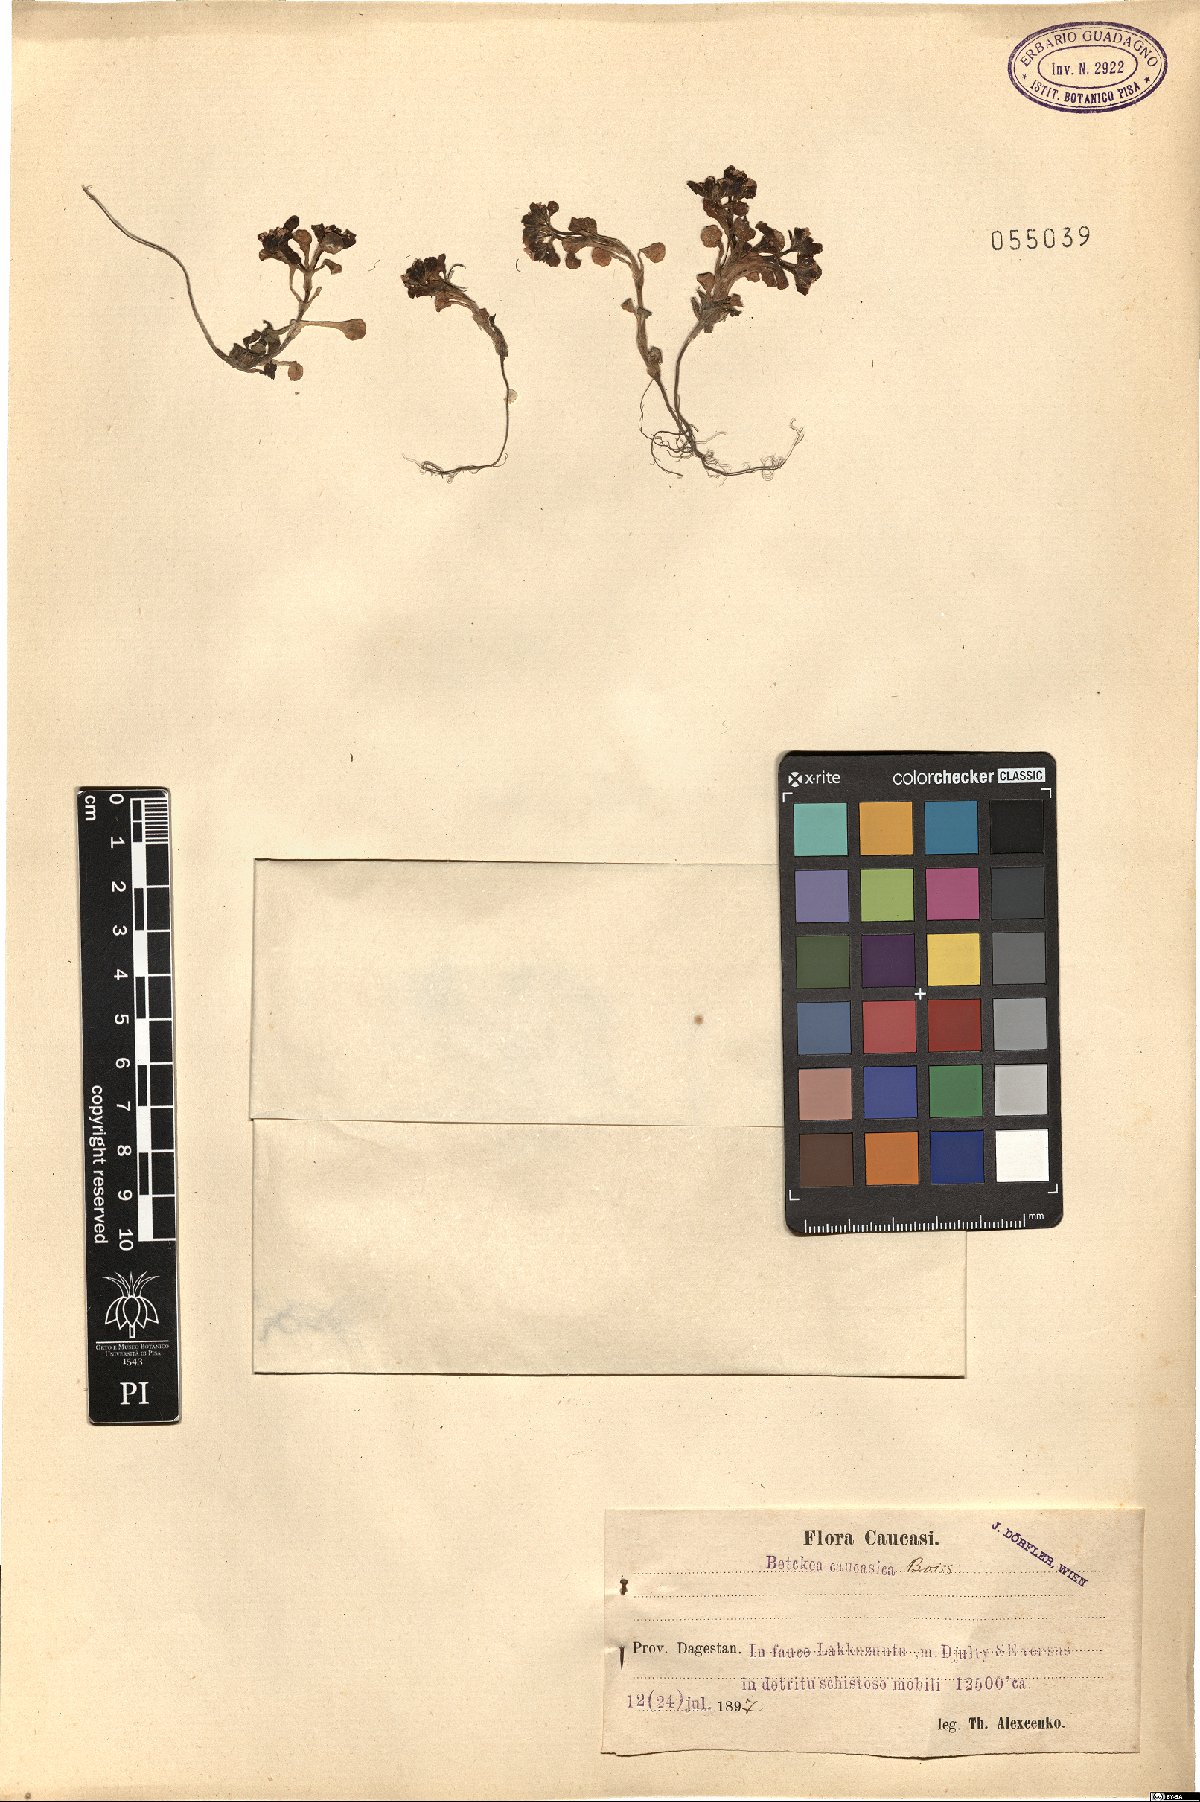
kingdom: Plantae
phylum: Tracheophyta
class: Magnoliopsida
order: Dipsacales
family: Caprifoliaceae
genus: Valerianella
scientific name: Valerianella caucasica
